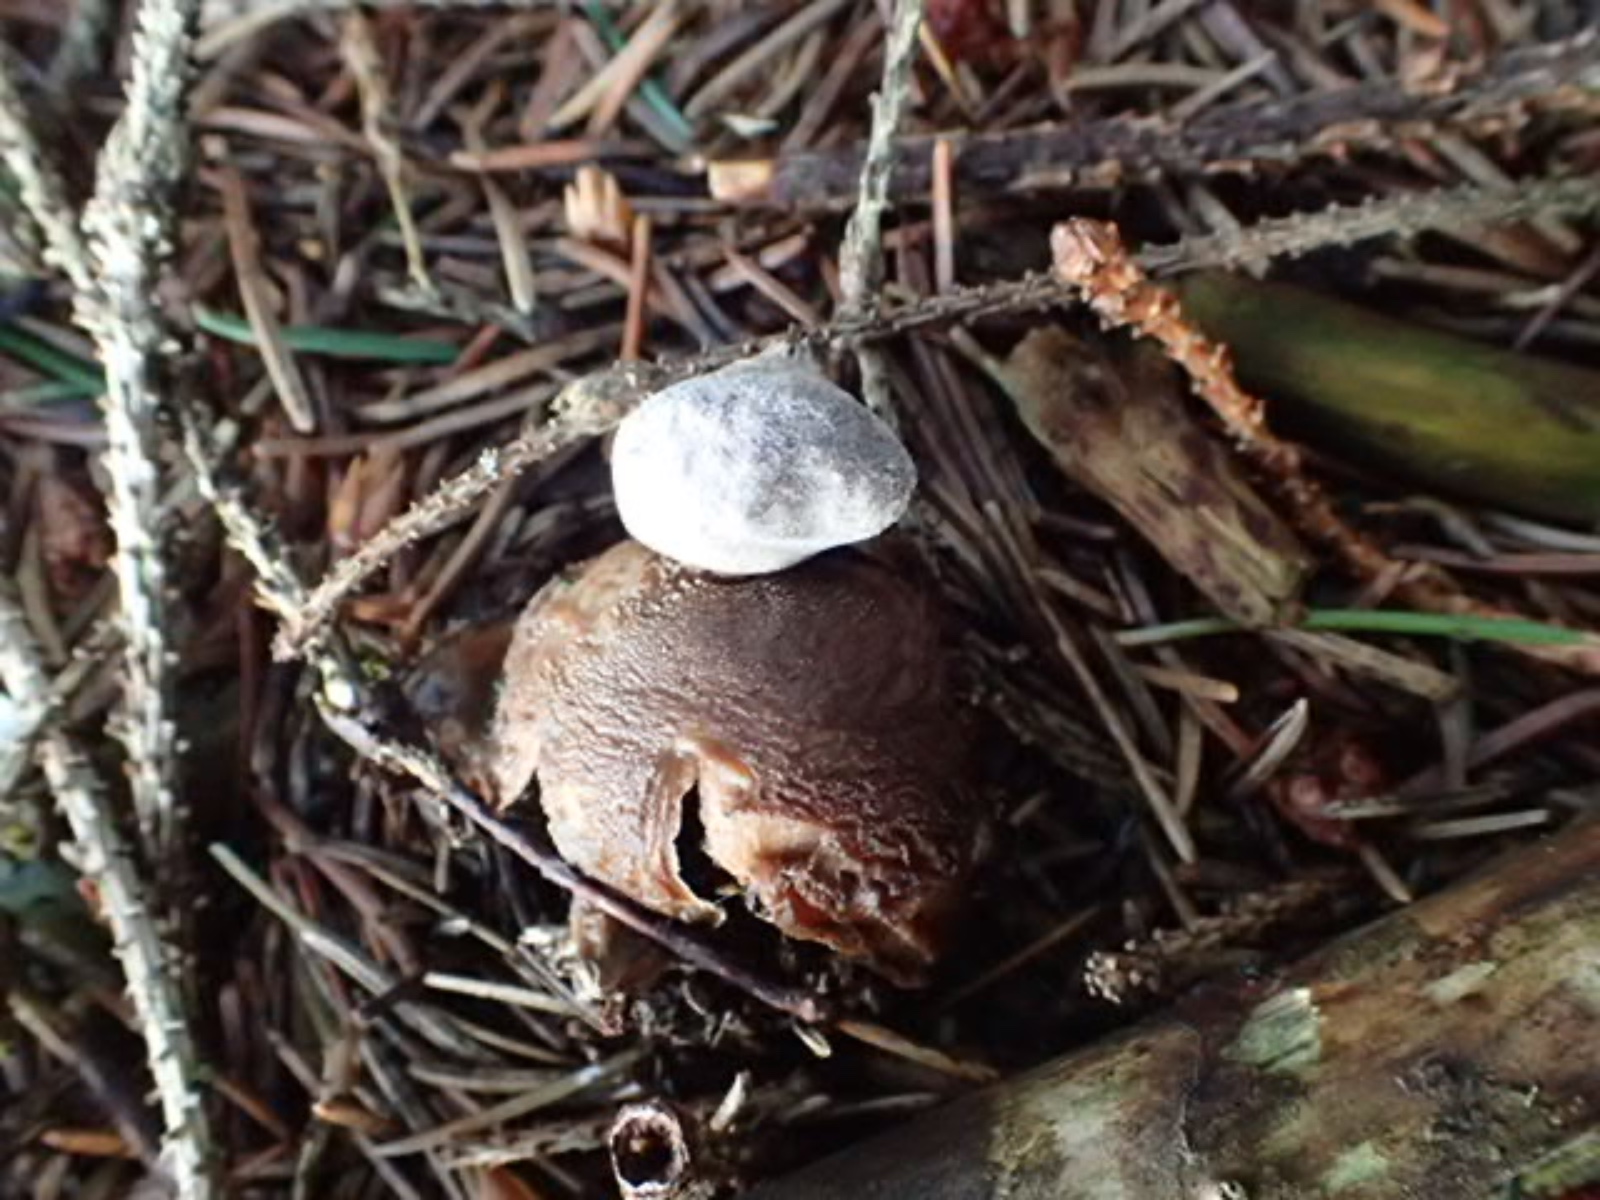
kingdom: Fungi
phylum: Basidiomycota
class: Agaricomycetes
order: Geastrales
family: Geastraceae
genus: Geastrum
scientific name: Geastrum
